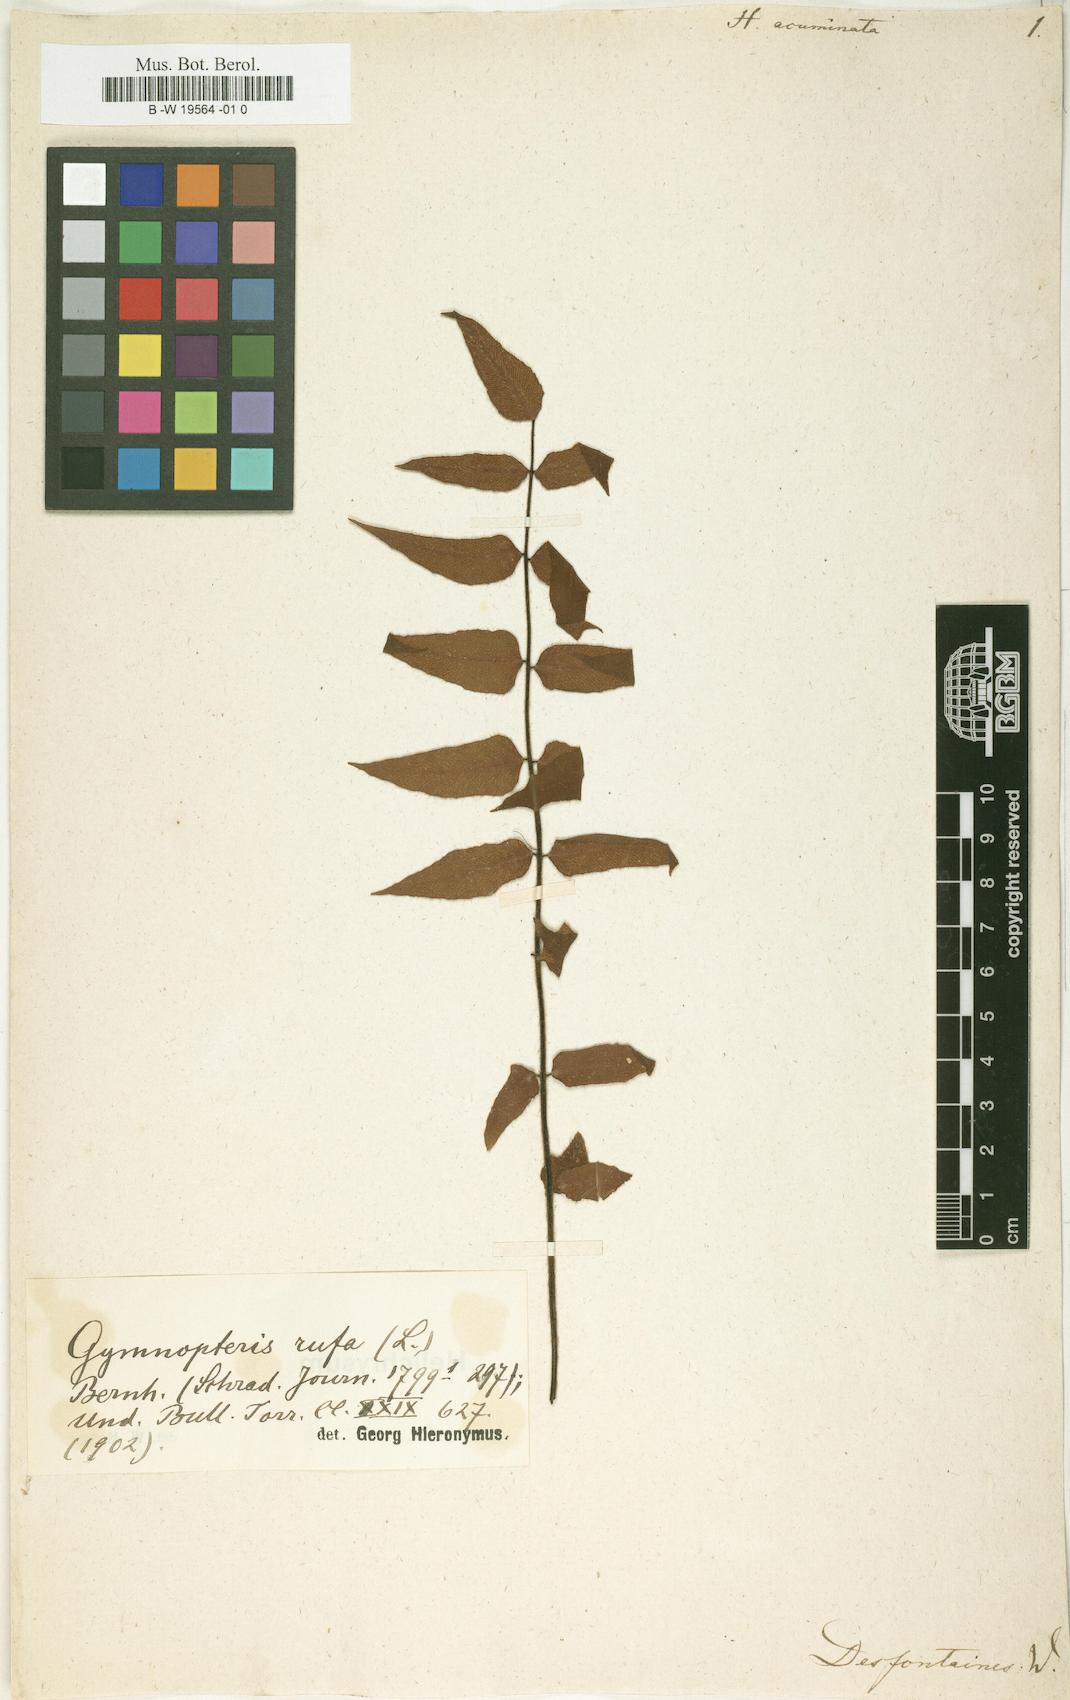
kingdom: Plantae
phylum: Tracheophyta
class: Polypodiopsida
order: Polypodiales
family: Pteridaceae
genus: Hemionitis
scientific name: Hemionitis
